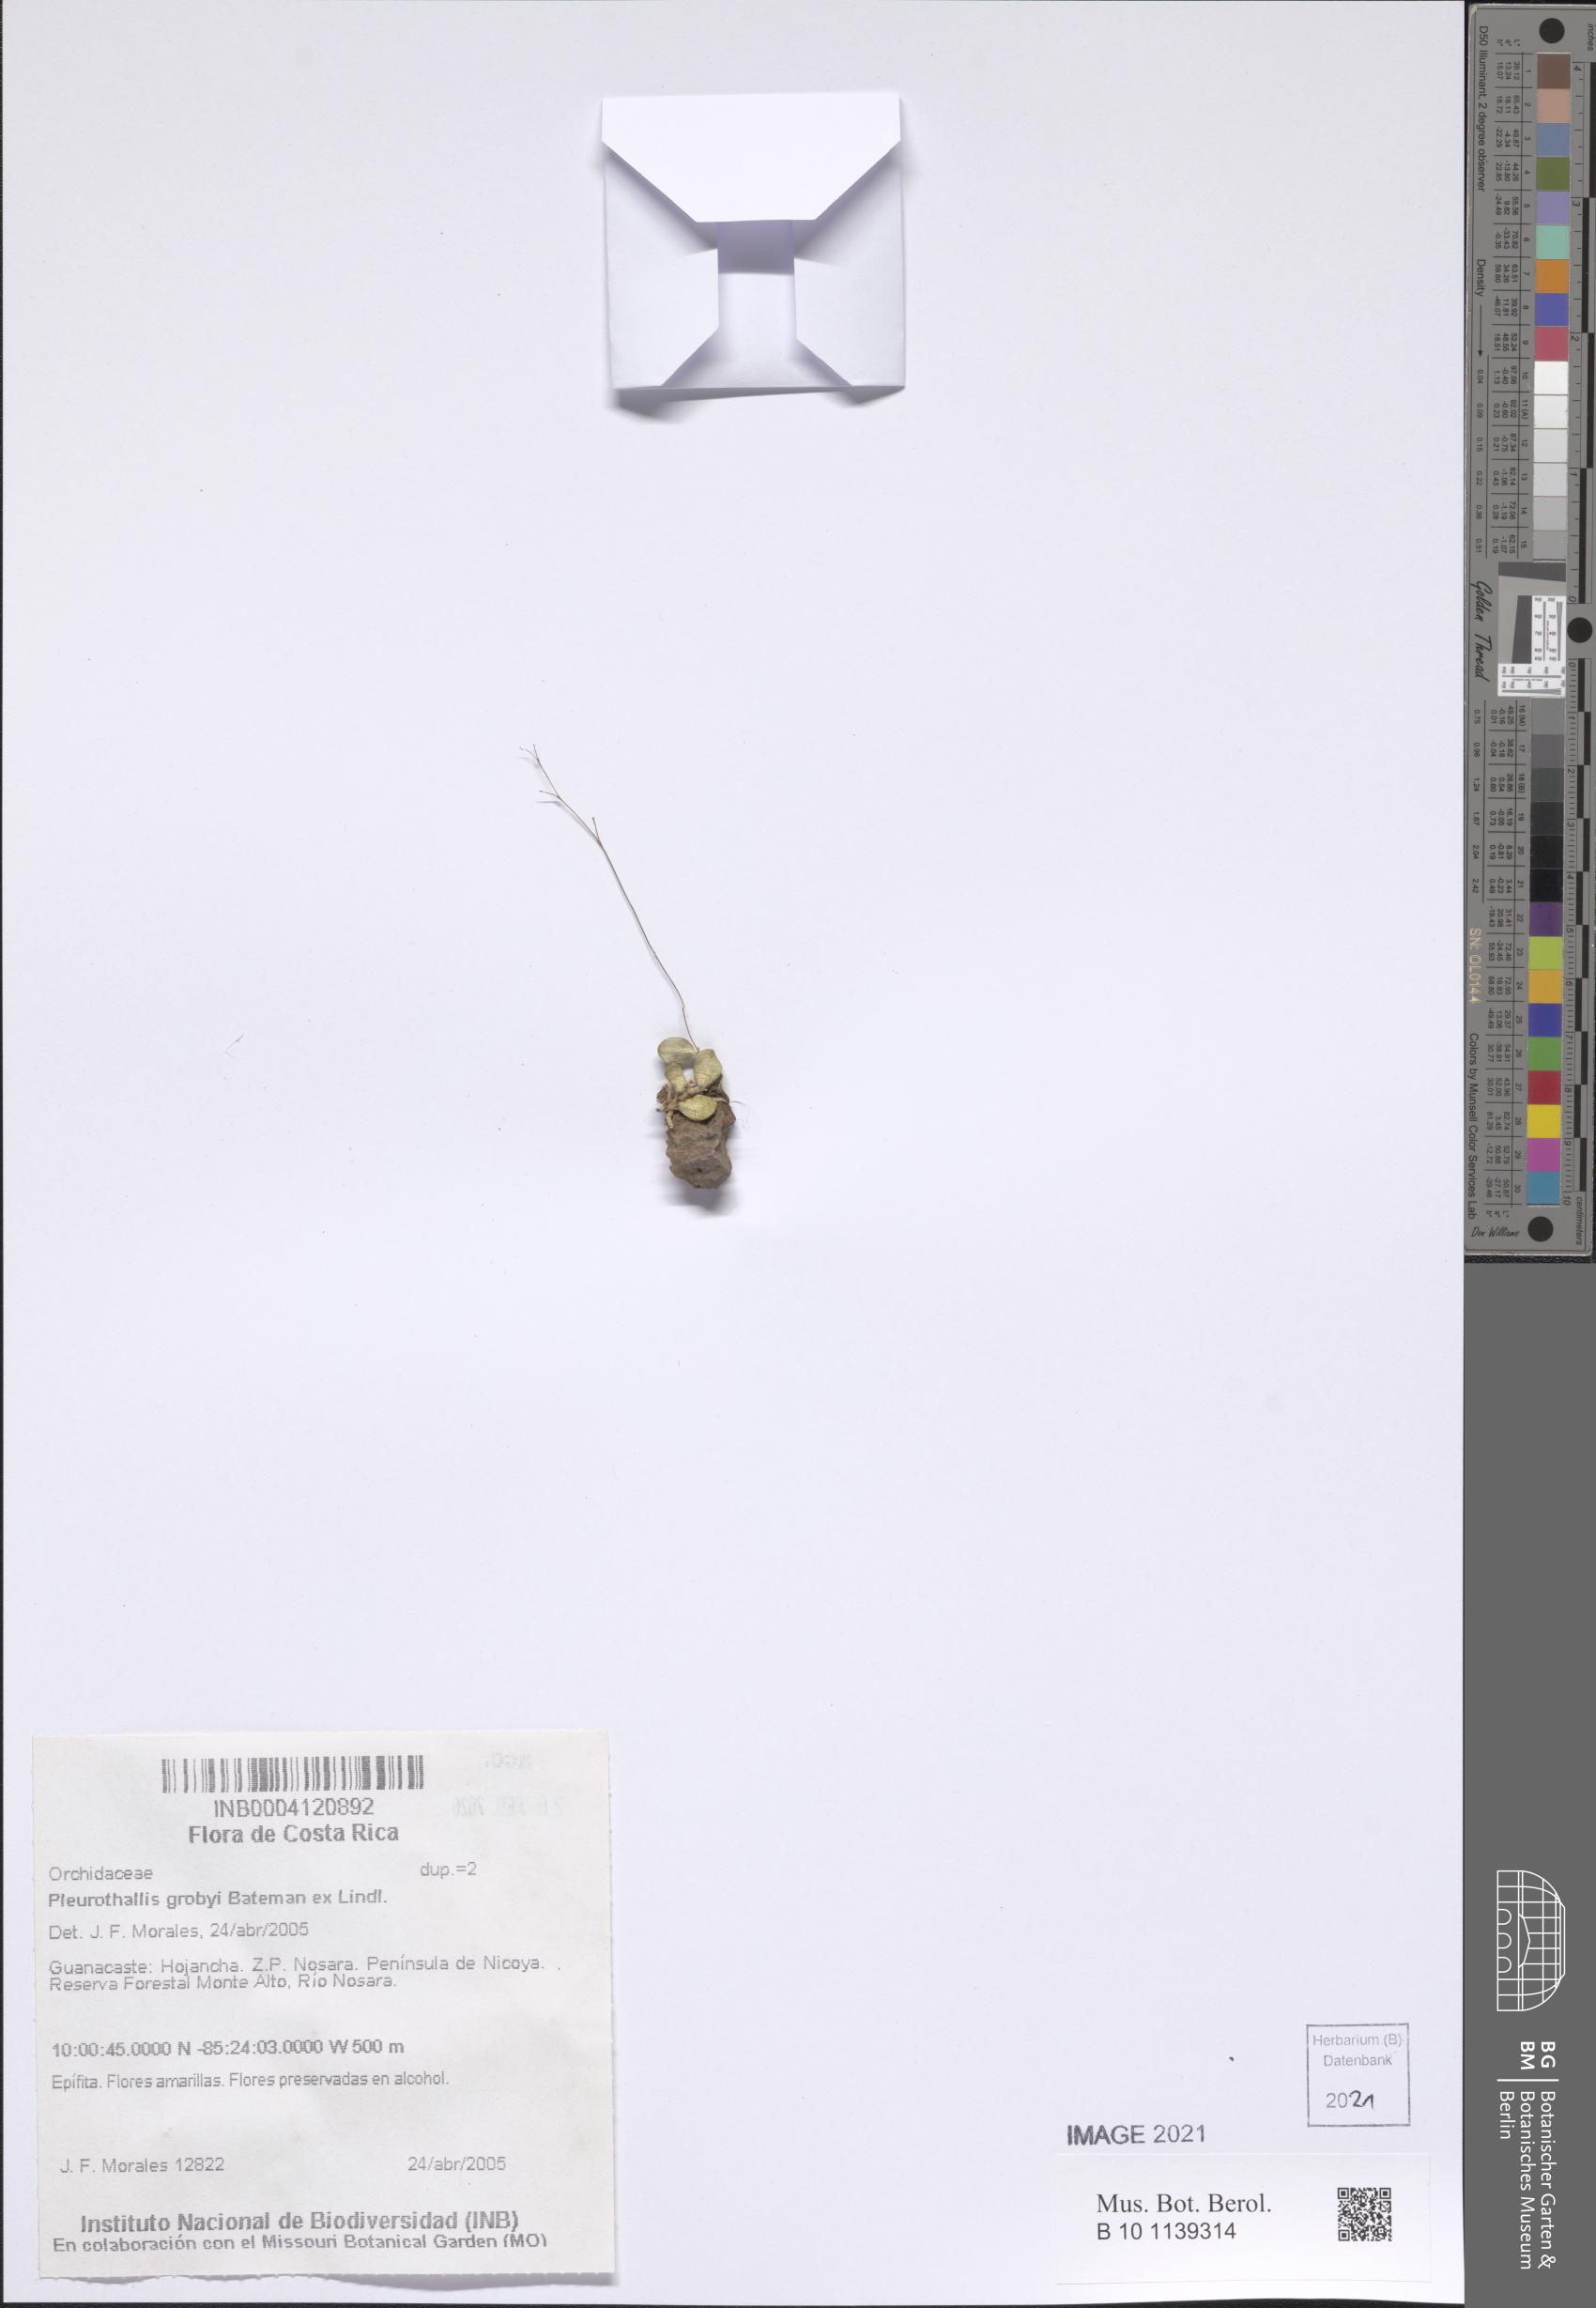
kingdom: Plantae
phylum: Tracheophyta
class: Liliopsida
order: Asparagales
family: Orchidaceae
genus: Specklinia
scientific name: Specklinia grobyi
